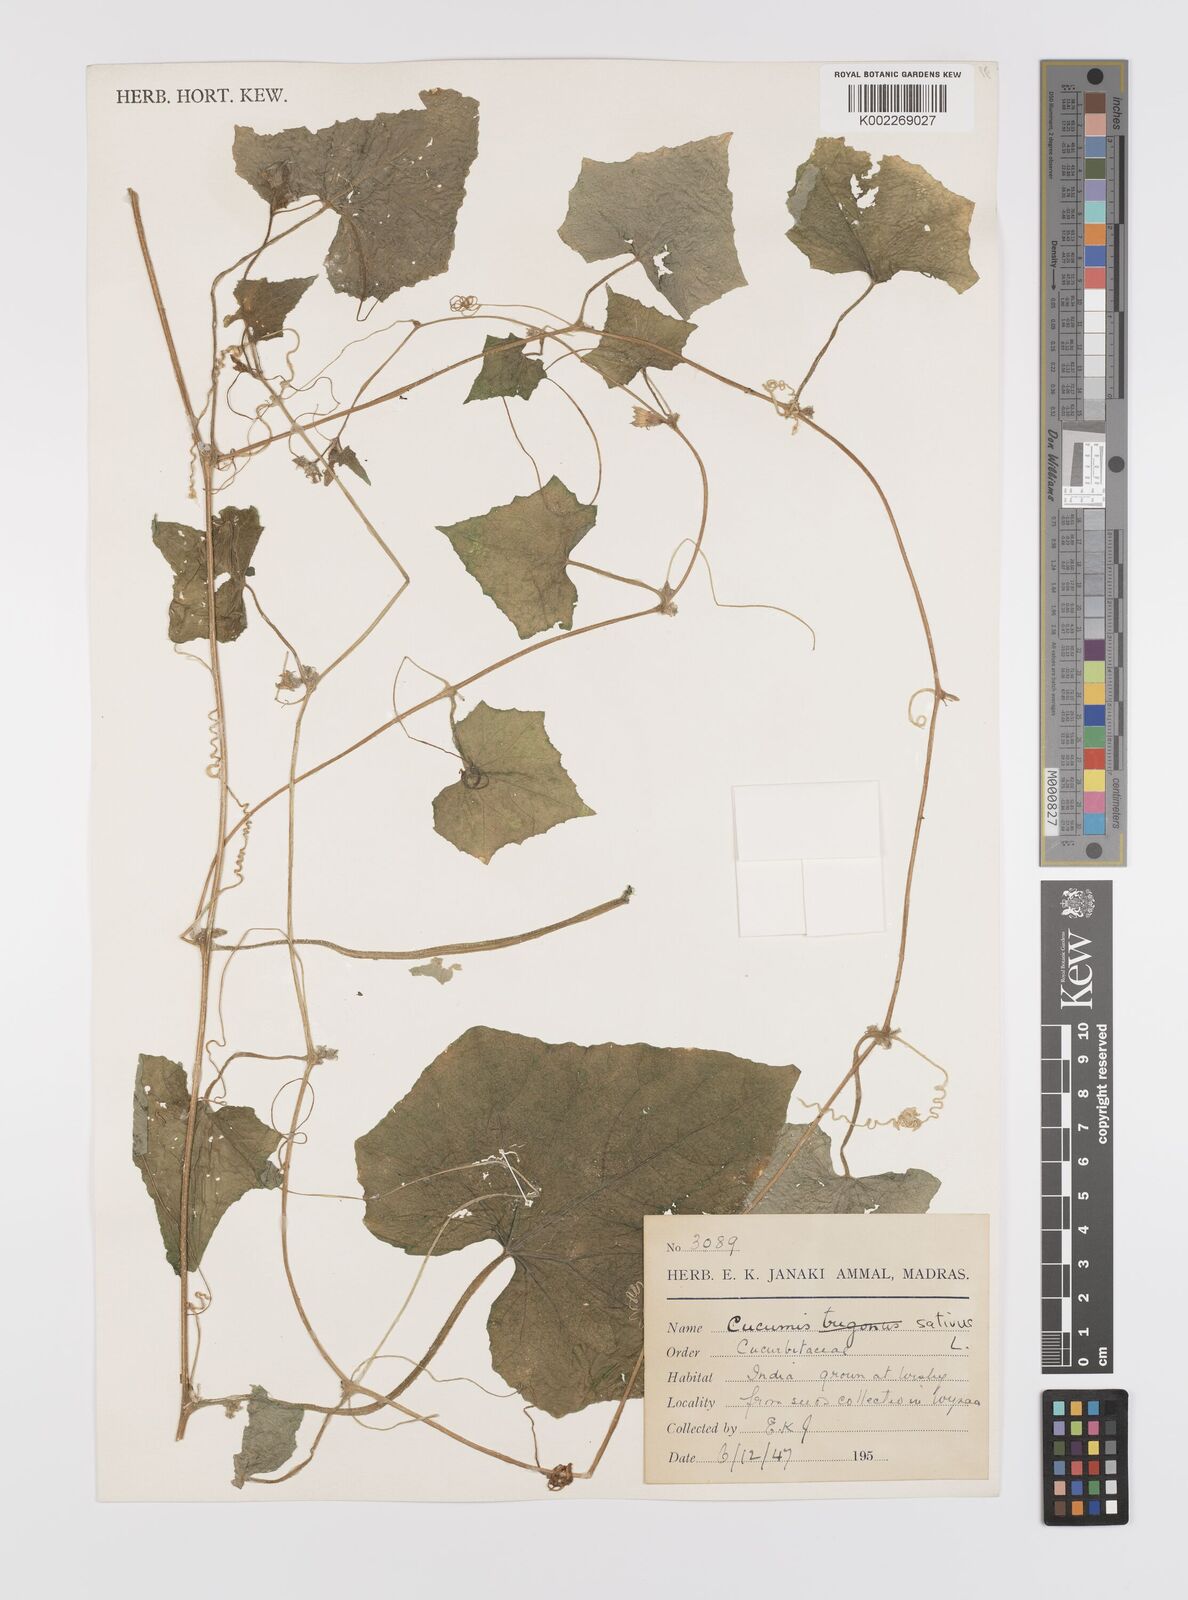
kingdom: Plantae
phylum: Tracheophyta
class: Magnoliopsida
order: Cucurbitales
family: Cucurbitaceae
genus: Cucumis
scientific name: Cucumis sativus
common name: Cucumber
